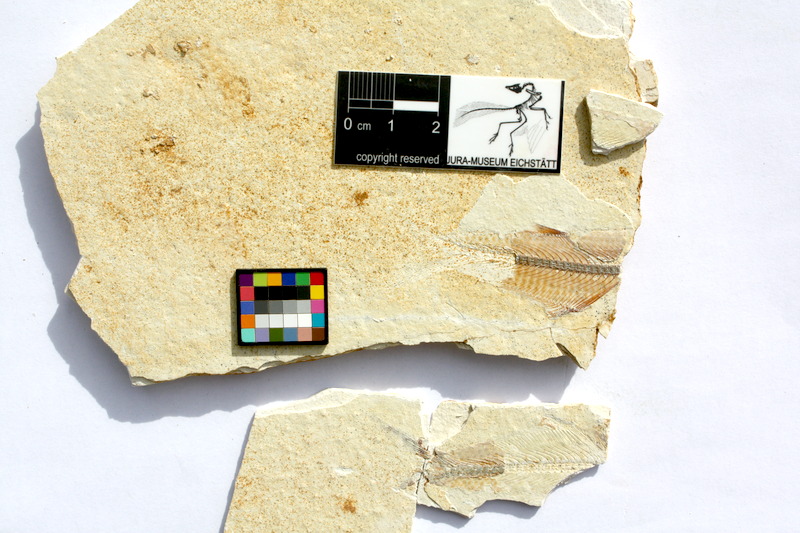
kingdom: Animalia
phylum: Chordata
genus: Thrissops
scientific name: Thrissops formosus
